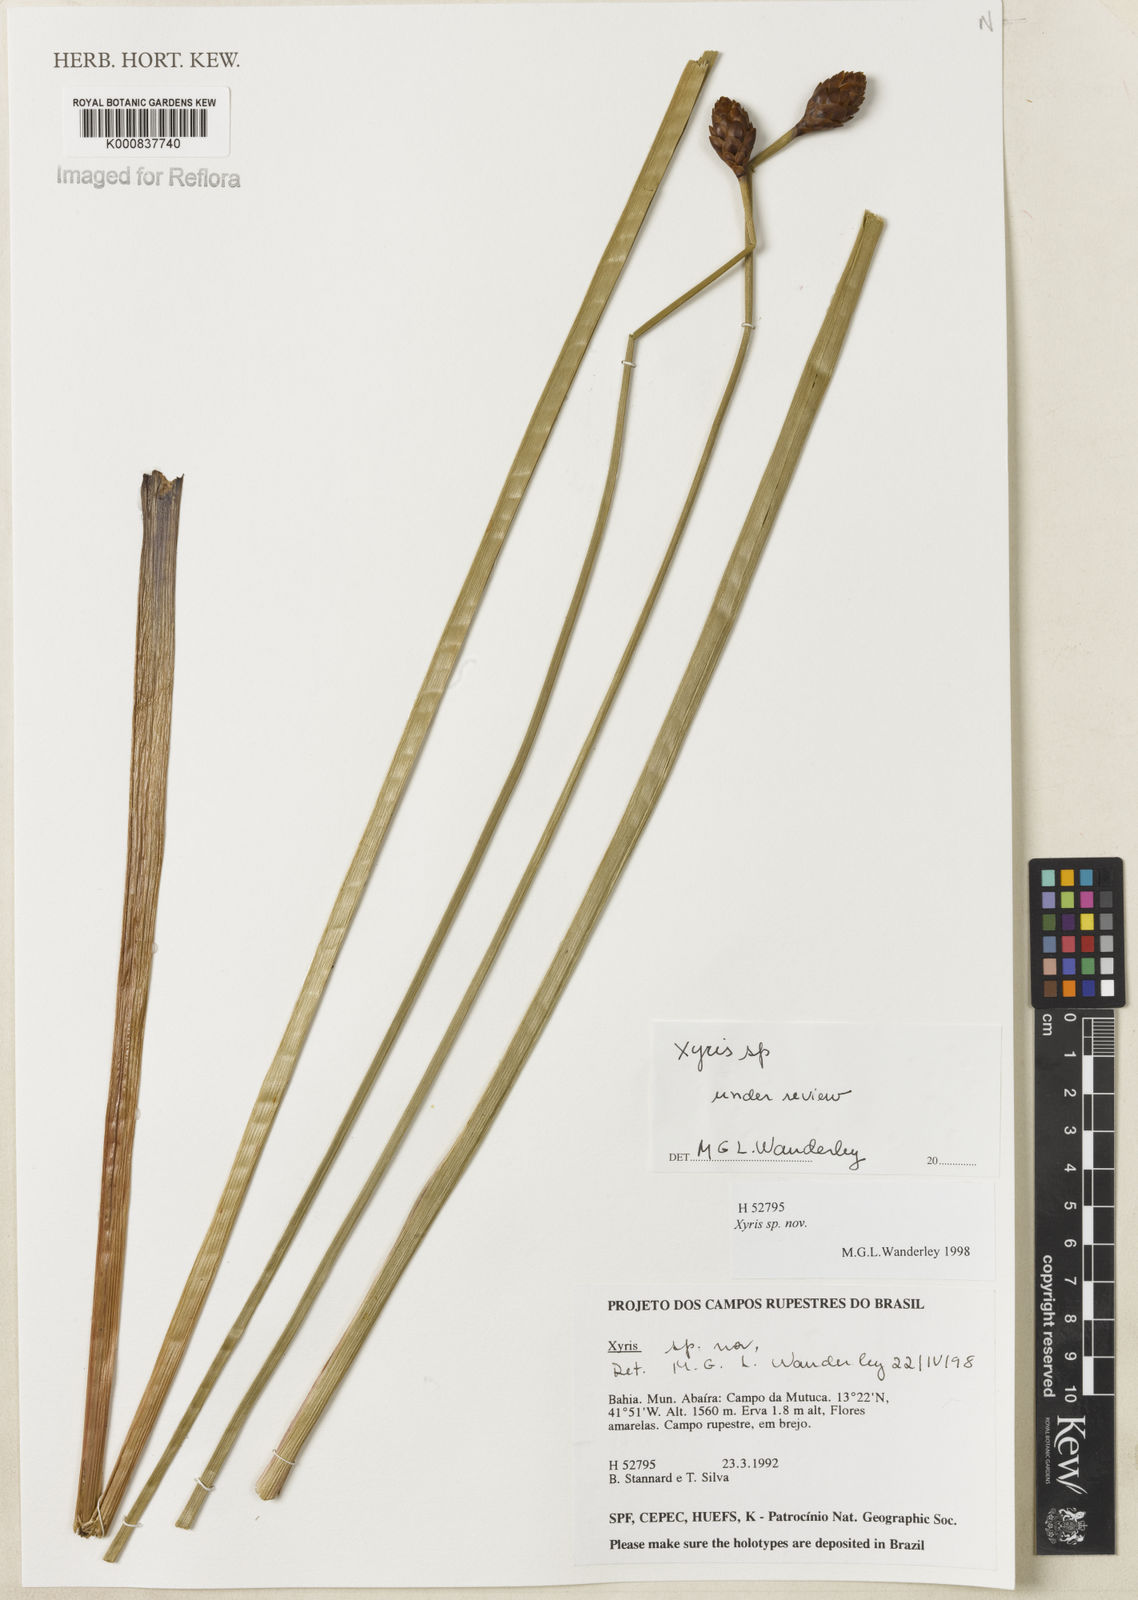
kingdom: Plantae
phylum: Tracheophyta
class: Liliopsida
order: Poales
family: Xyridaceae
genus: Xyris
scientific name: Xyris
